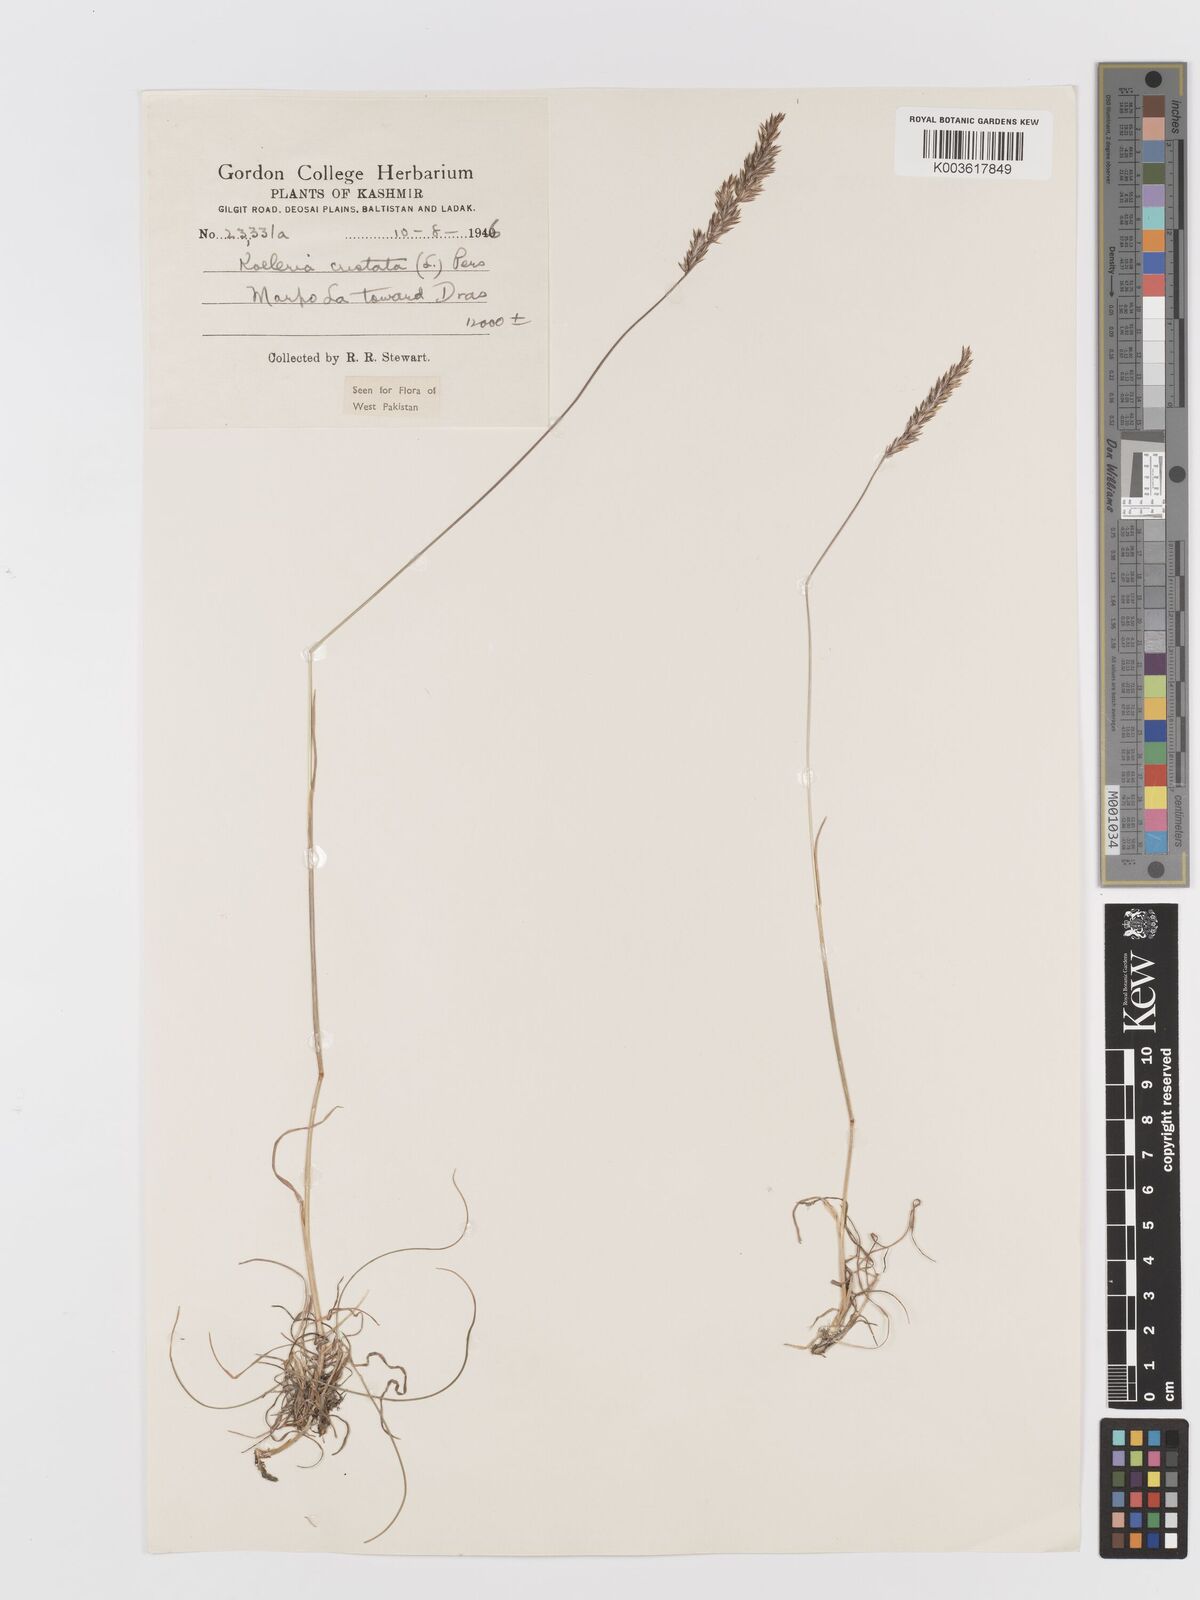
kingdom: Plantae
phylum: Tracheophyta
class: Liliopsida
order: Poales
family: Poaceae
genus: Koeleria
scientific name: Koeleria macrantha
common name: Crested hair-grass
